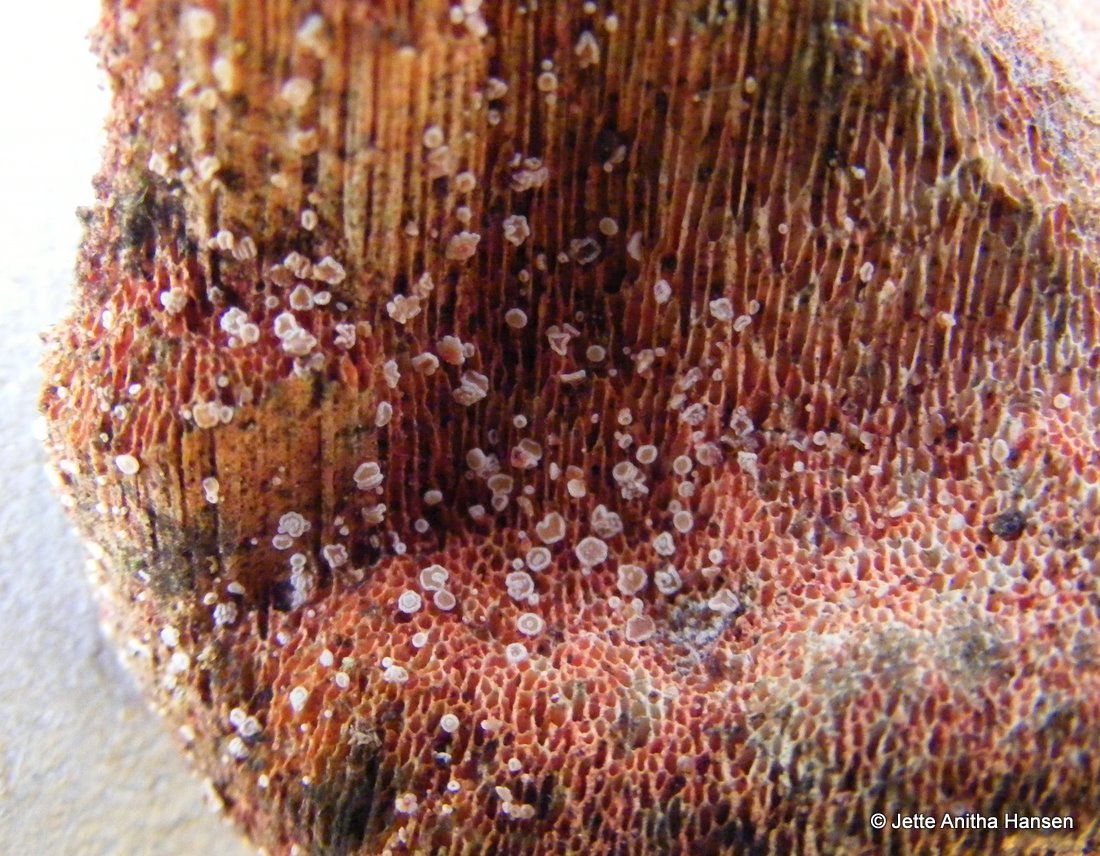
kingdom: Fungi
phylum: Ascomycota
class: Leotiomycetes
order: Helotiales
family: Hyphodiscaceae
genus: Hyphodiscus
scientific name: Hyphodiscus hymeniophilus
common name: snyltende sirskive
